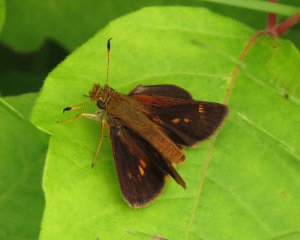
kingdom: Animalia
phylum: Arthropoda
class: Insecta
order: Lepidoptera
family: Hesperiidae
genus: Poanes
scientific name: Poanes massasoit
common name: Mulberry Wing
